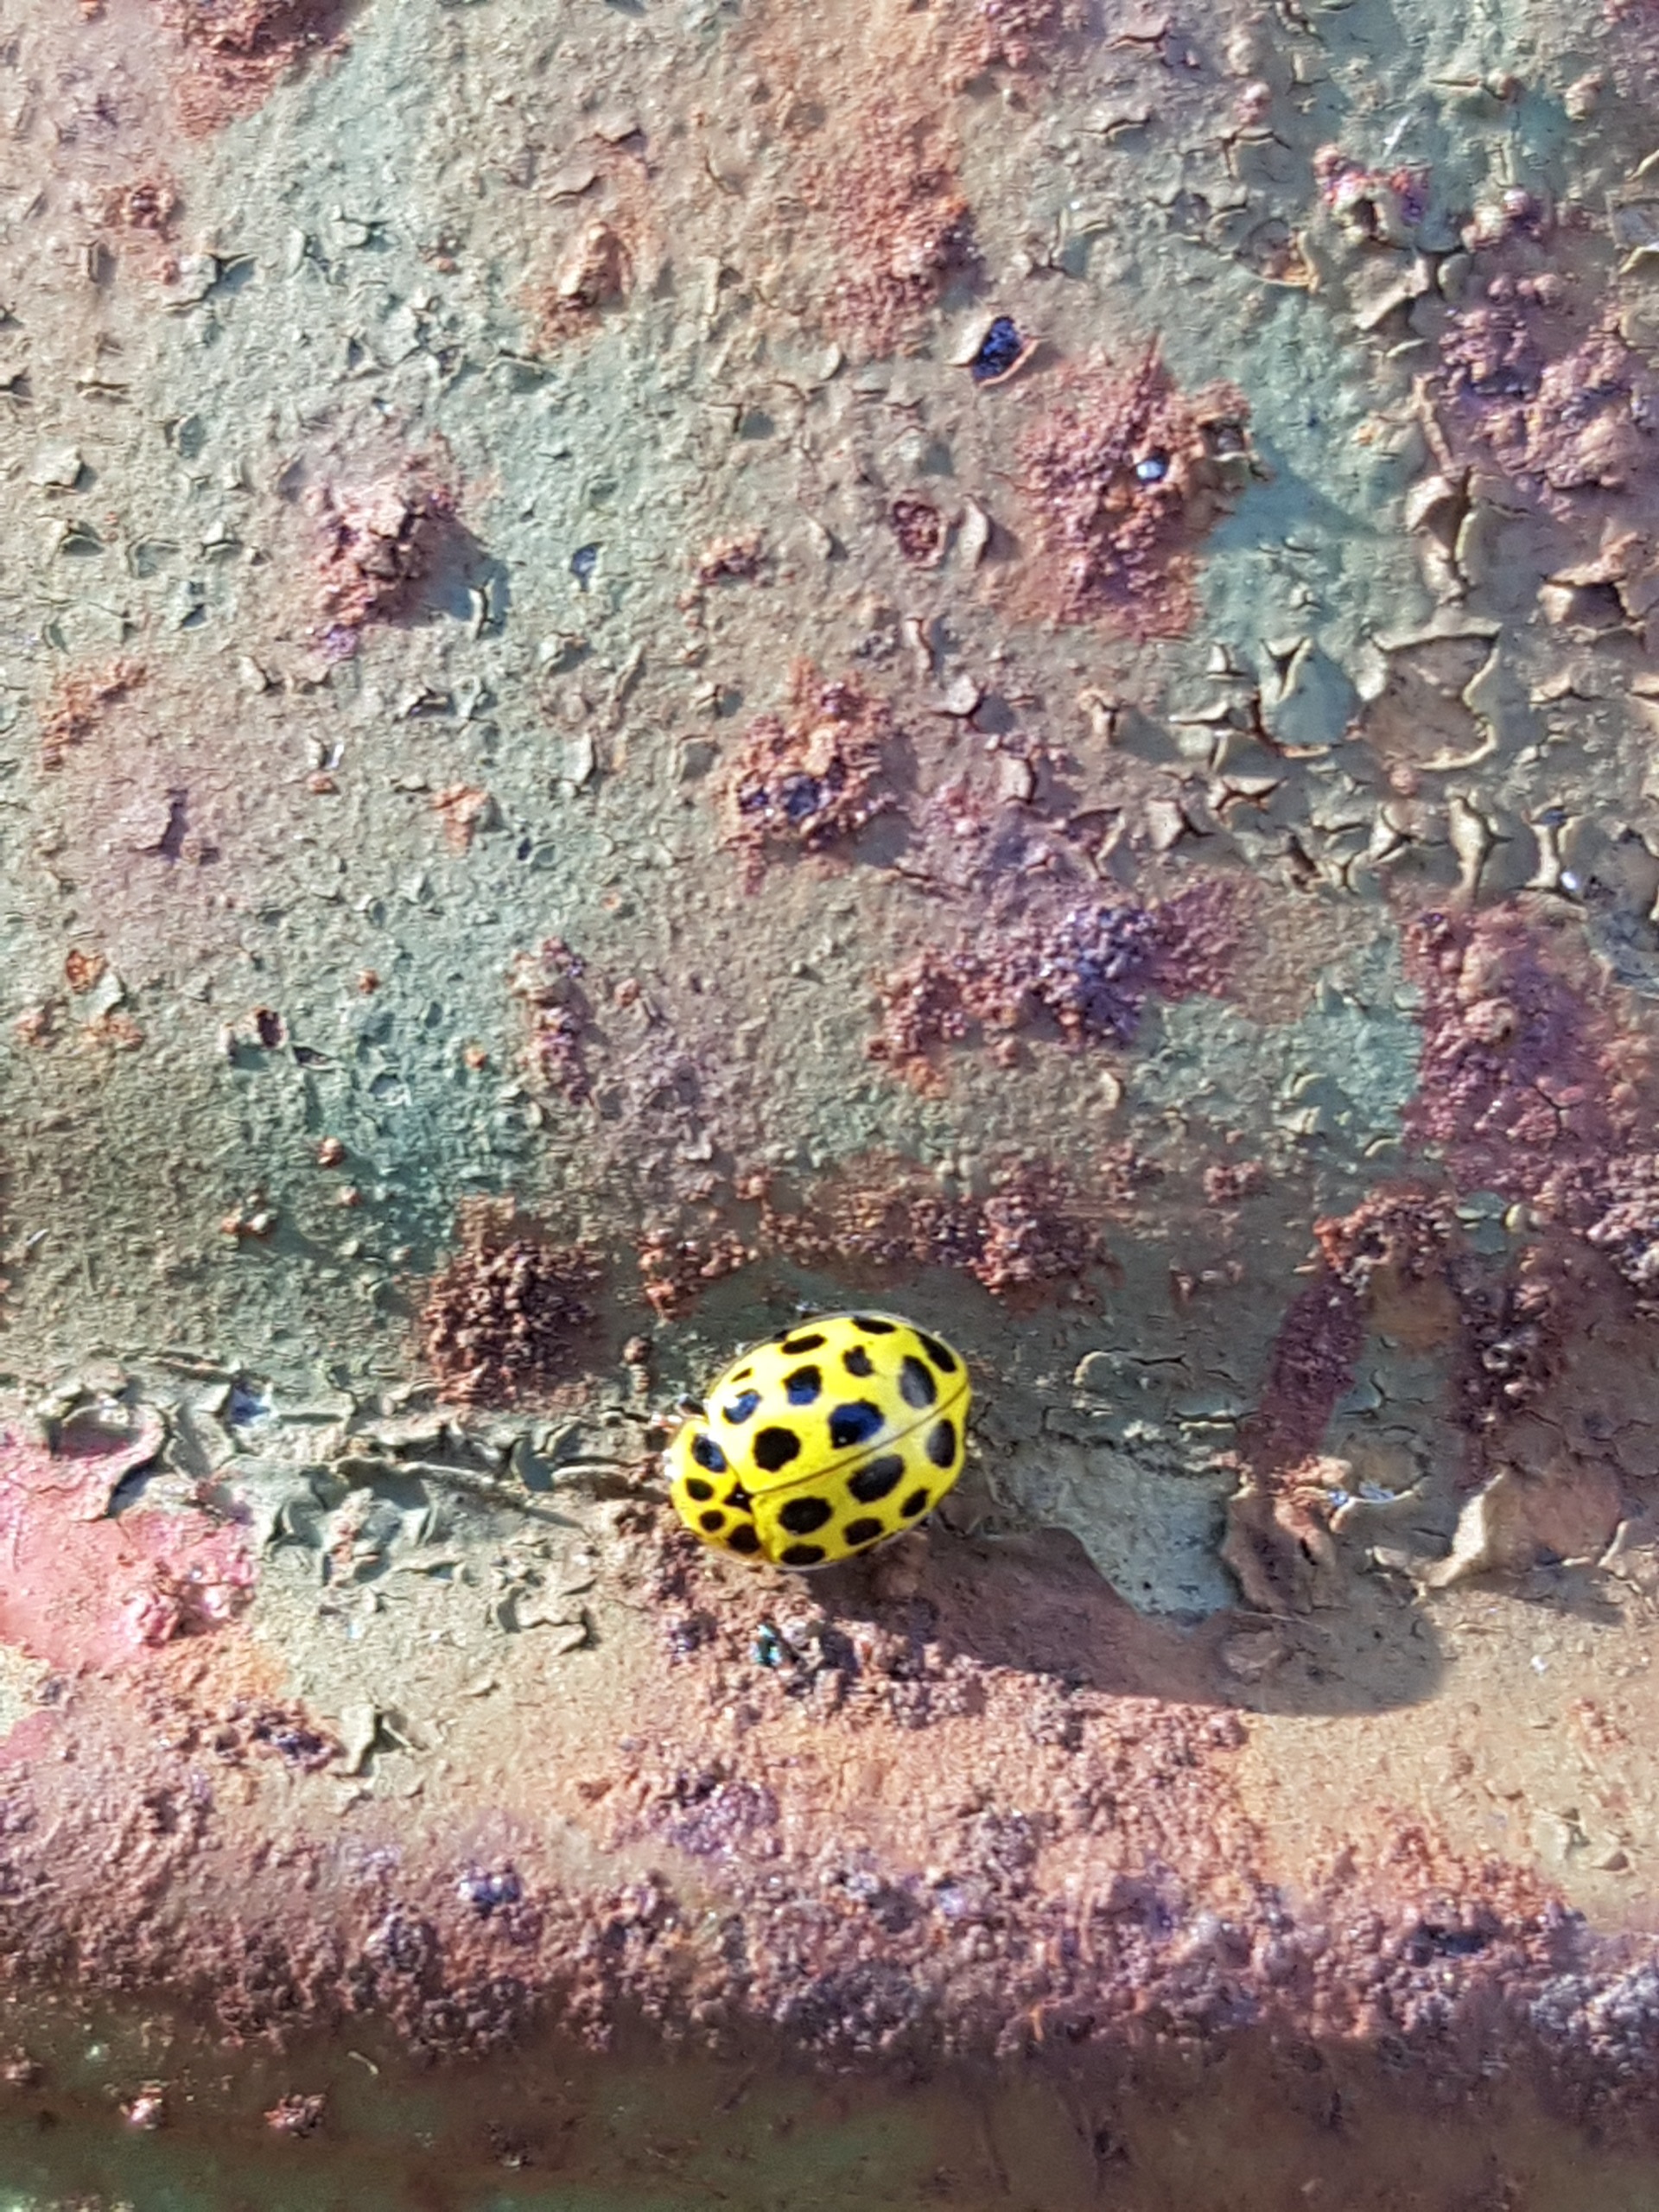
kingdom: Animalia
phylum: Arthropoda
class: Insecta
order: Coleoptera
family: Coccinellidae
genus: Psyllobora
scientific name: Psyllobora vigintiduopunctata
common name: Toogtyveplettet mariehøne
